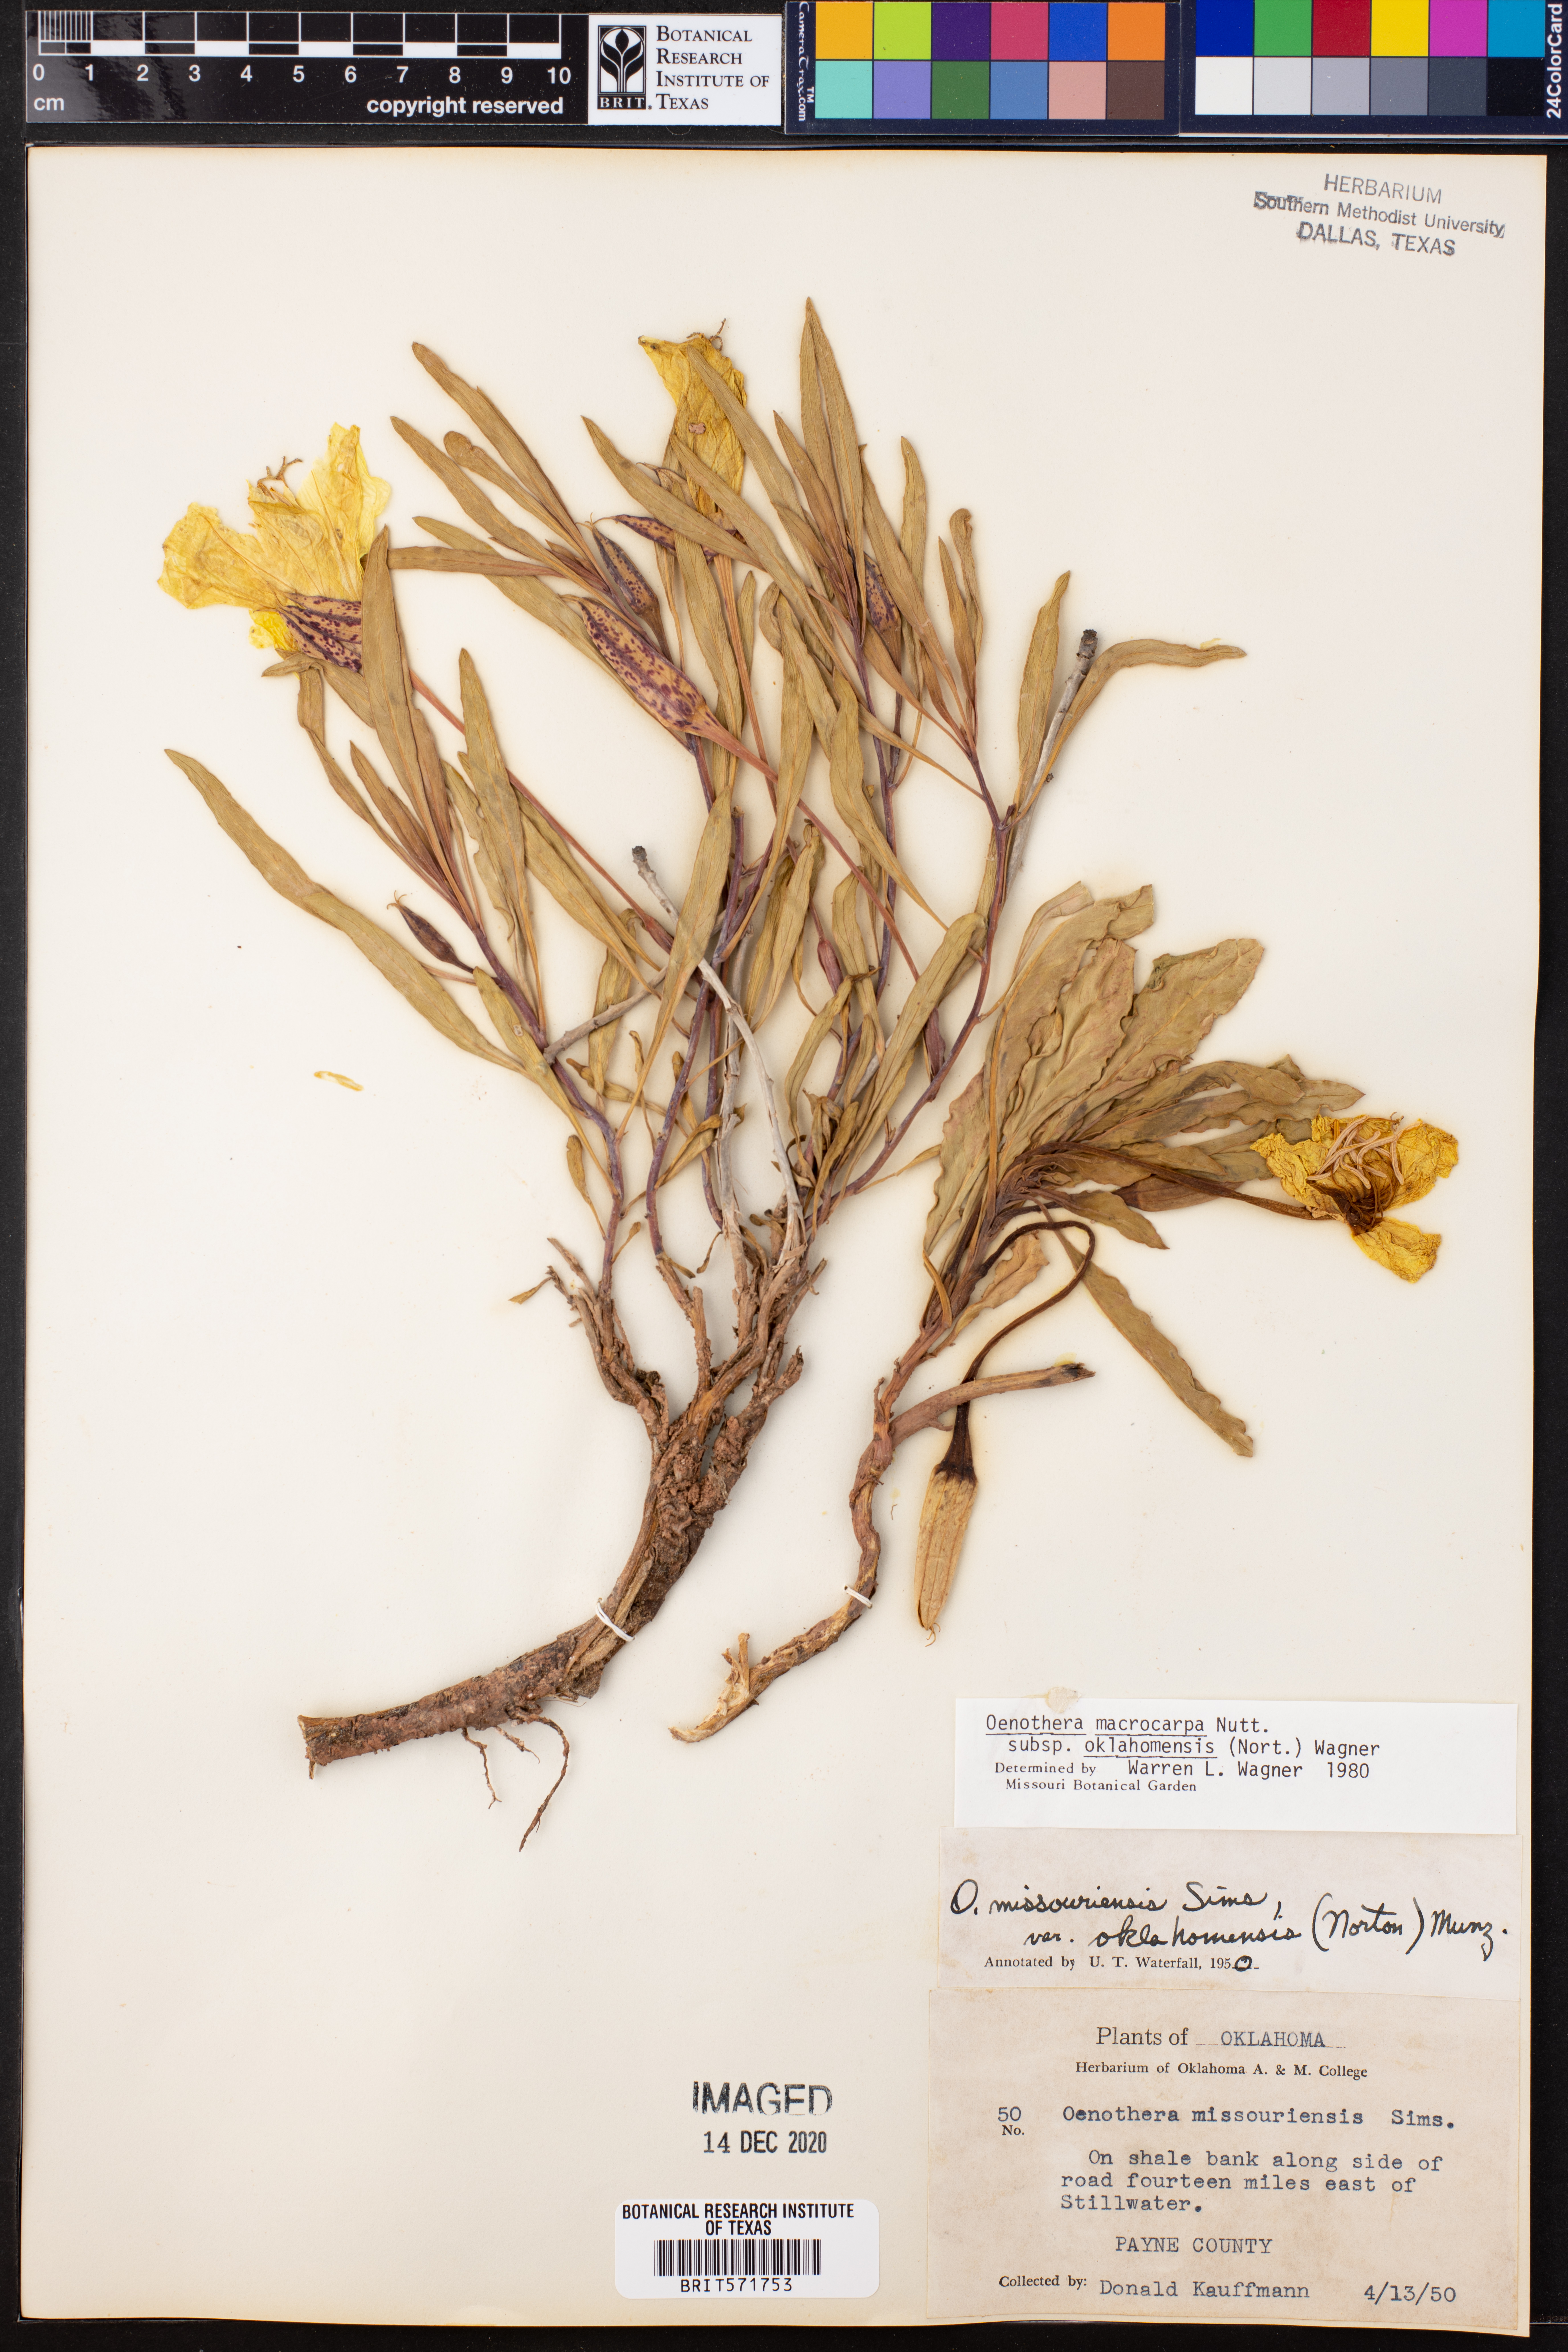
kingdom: Plantae
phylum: Tracheophyta
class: Magnoliopsida
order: Myrtales
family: Onagraceae
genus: Oenothera
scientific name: Oenothera macrocarpa
